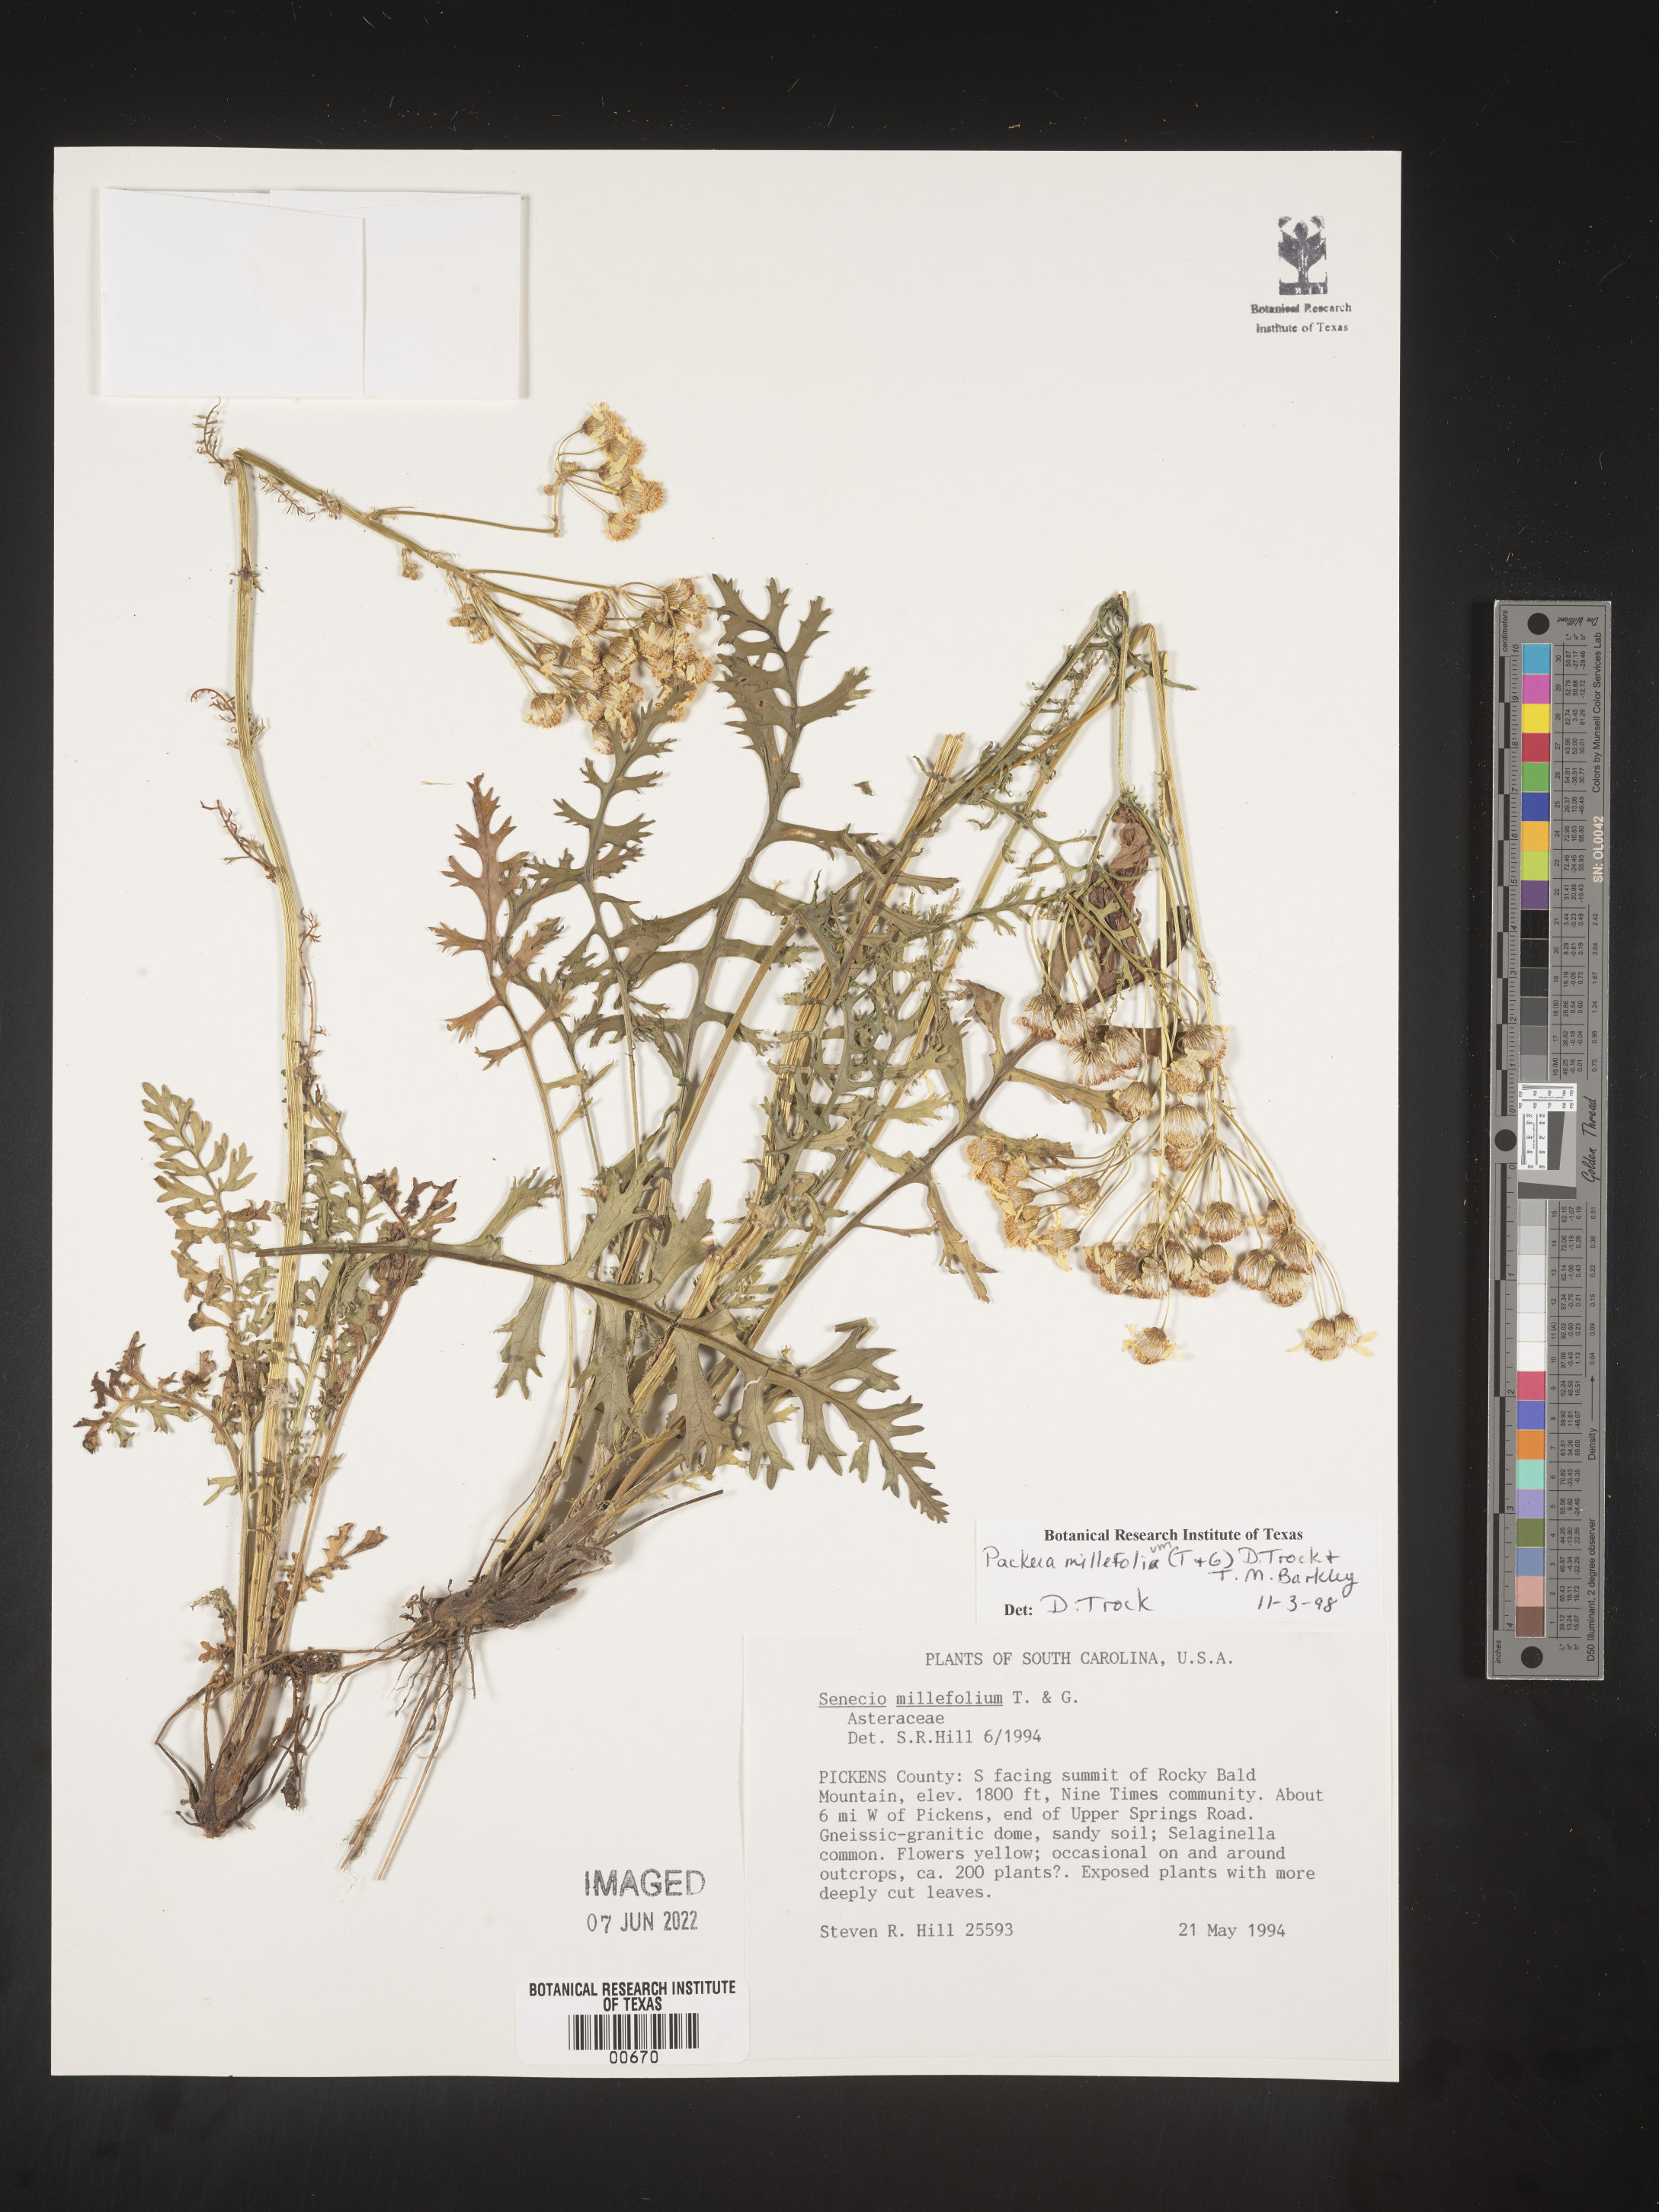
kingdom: Plantae
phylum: Tracheophyta
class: Magnoliopsida
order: Asterales
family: Asteraceae
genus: Packera
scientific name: Packera millefolia
